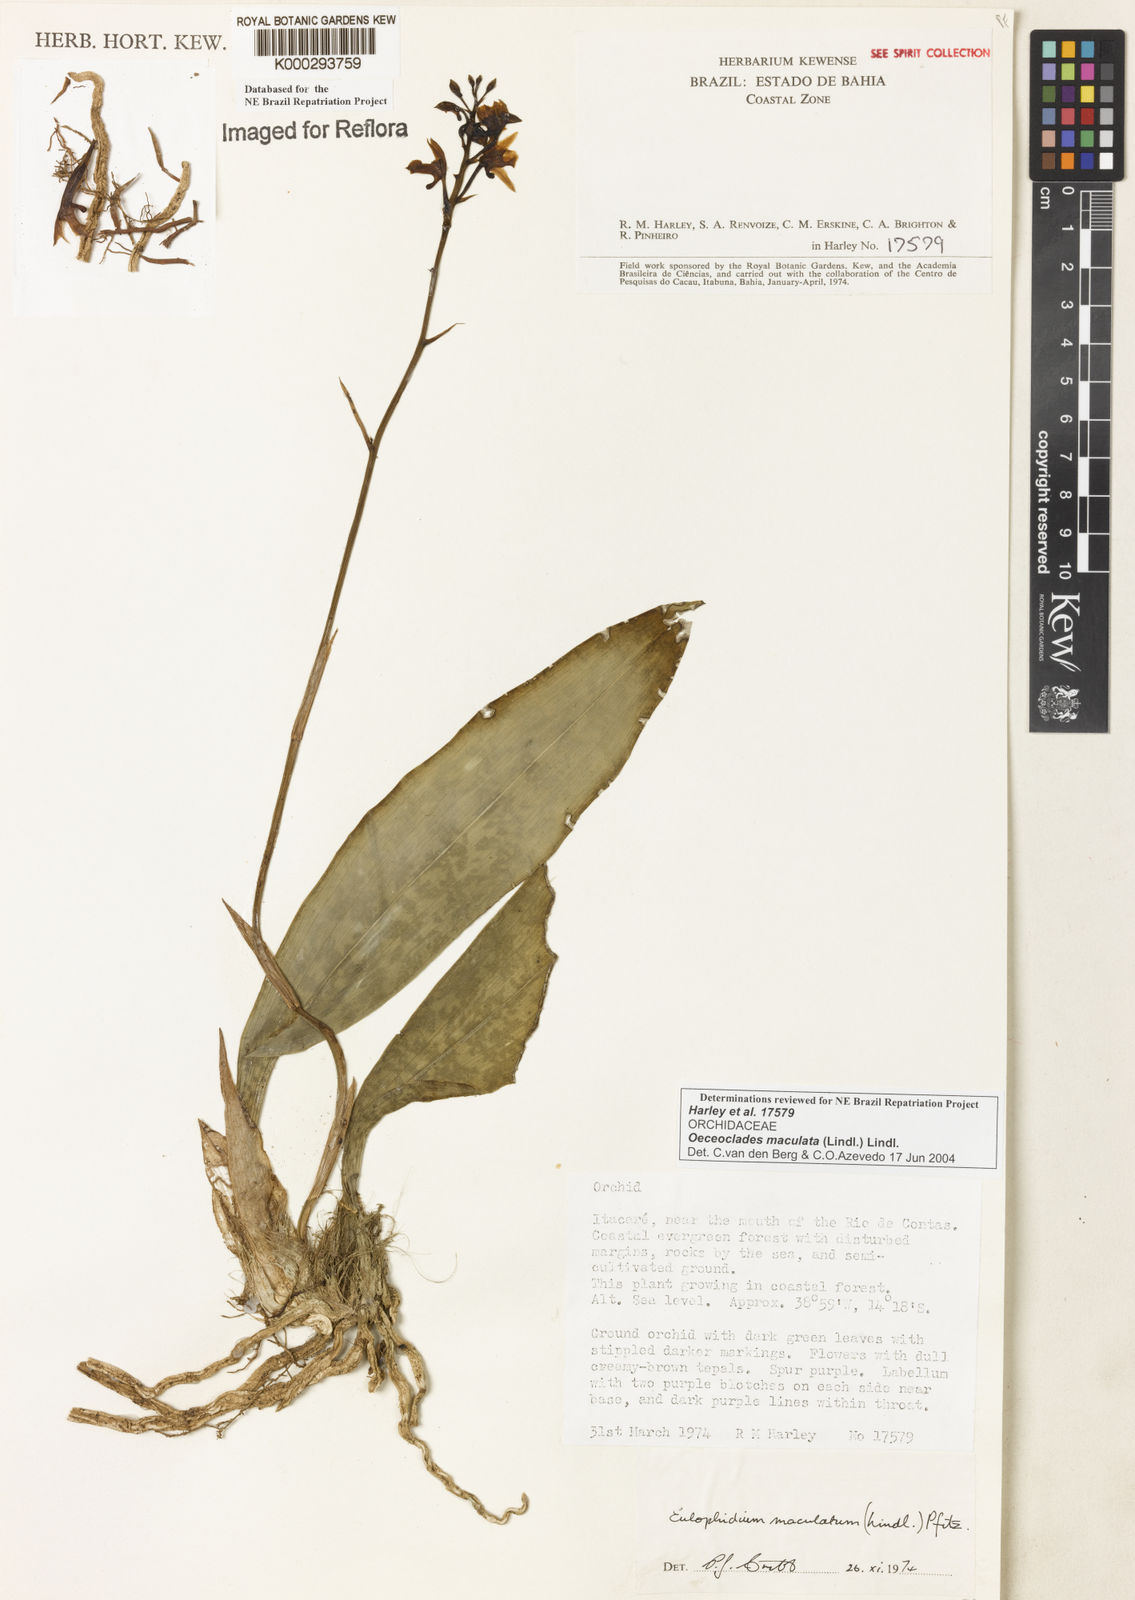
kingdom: Plantae
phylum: Tracheophyta
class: Liliopsida
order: Asparagales
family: Orchidaceae
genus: Eulophia
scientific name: Eulophia maculata
